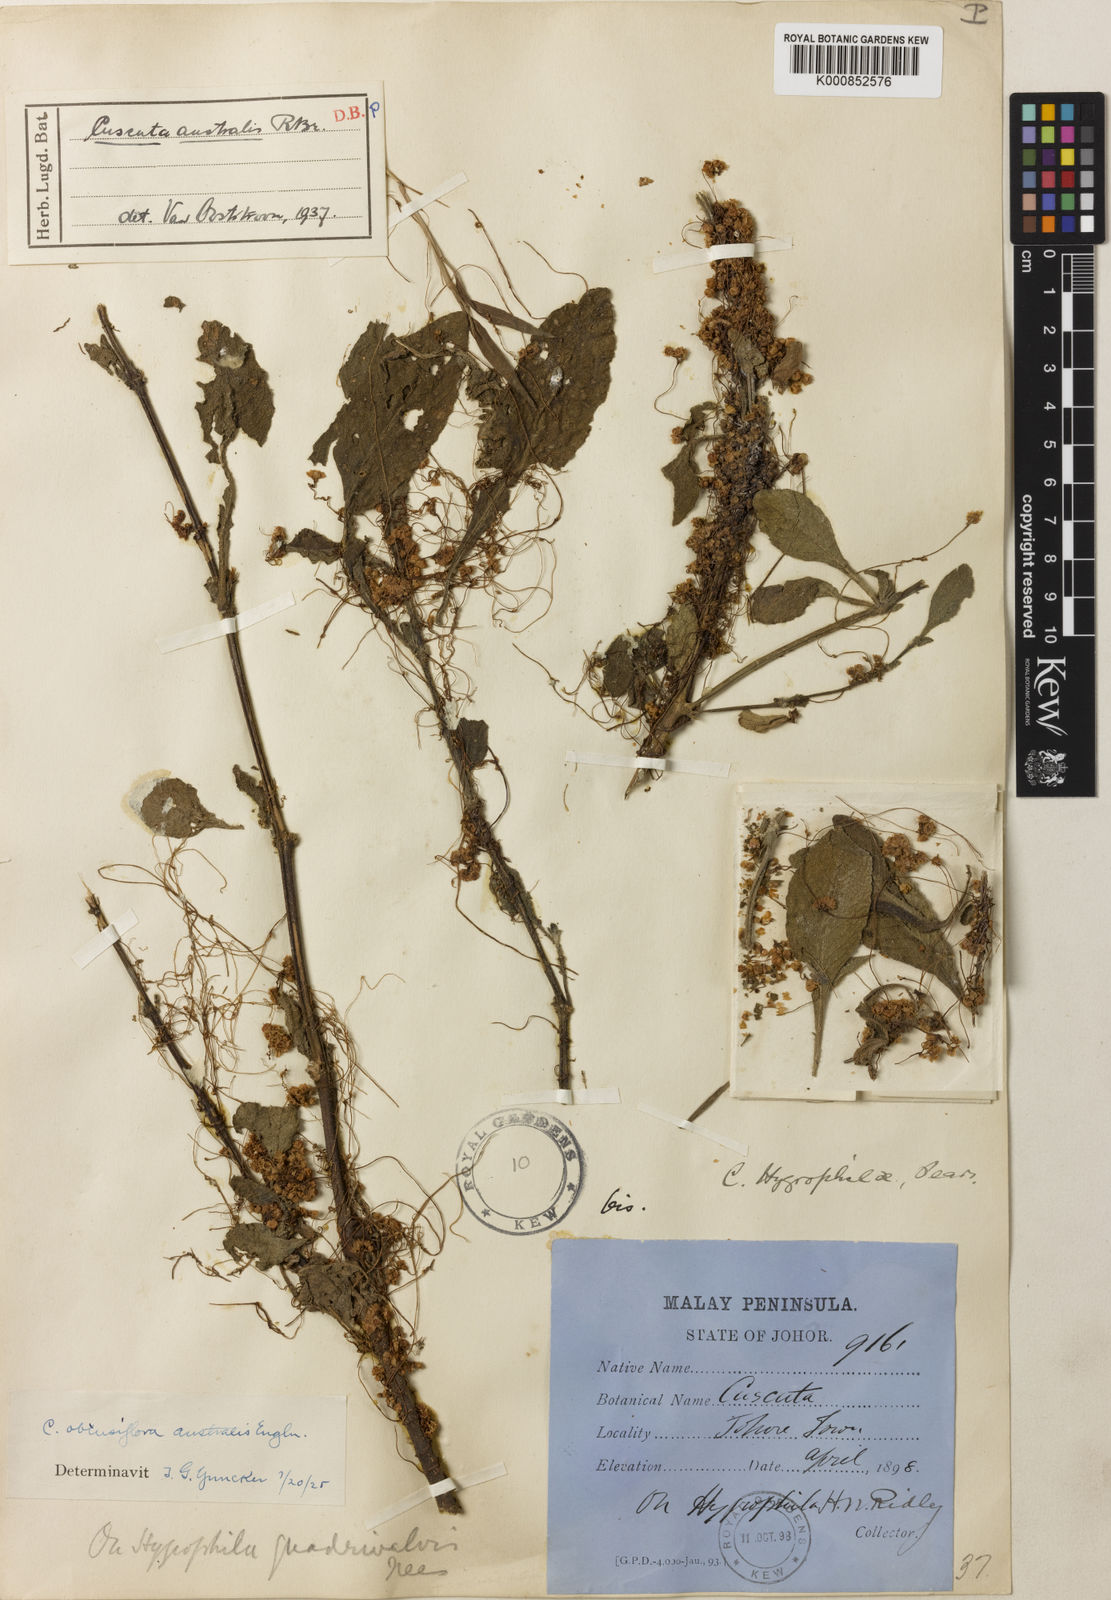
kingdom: Plantae
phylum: Tracheophyta
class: Magnoliopsida
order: Solanales
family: Convolvulaceae
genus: Cuscuta
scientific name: Cuscuta australis
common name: Australian dodder
